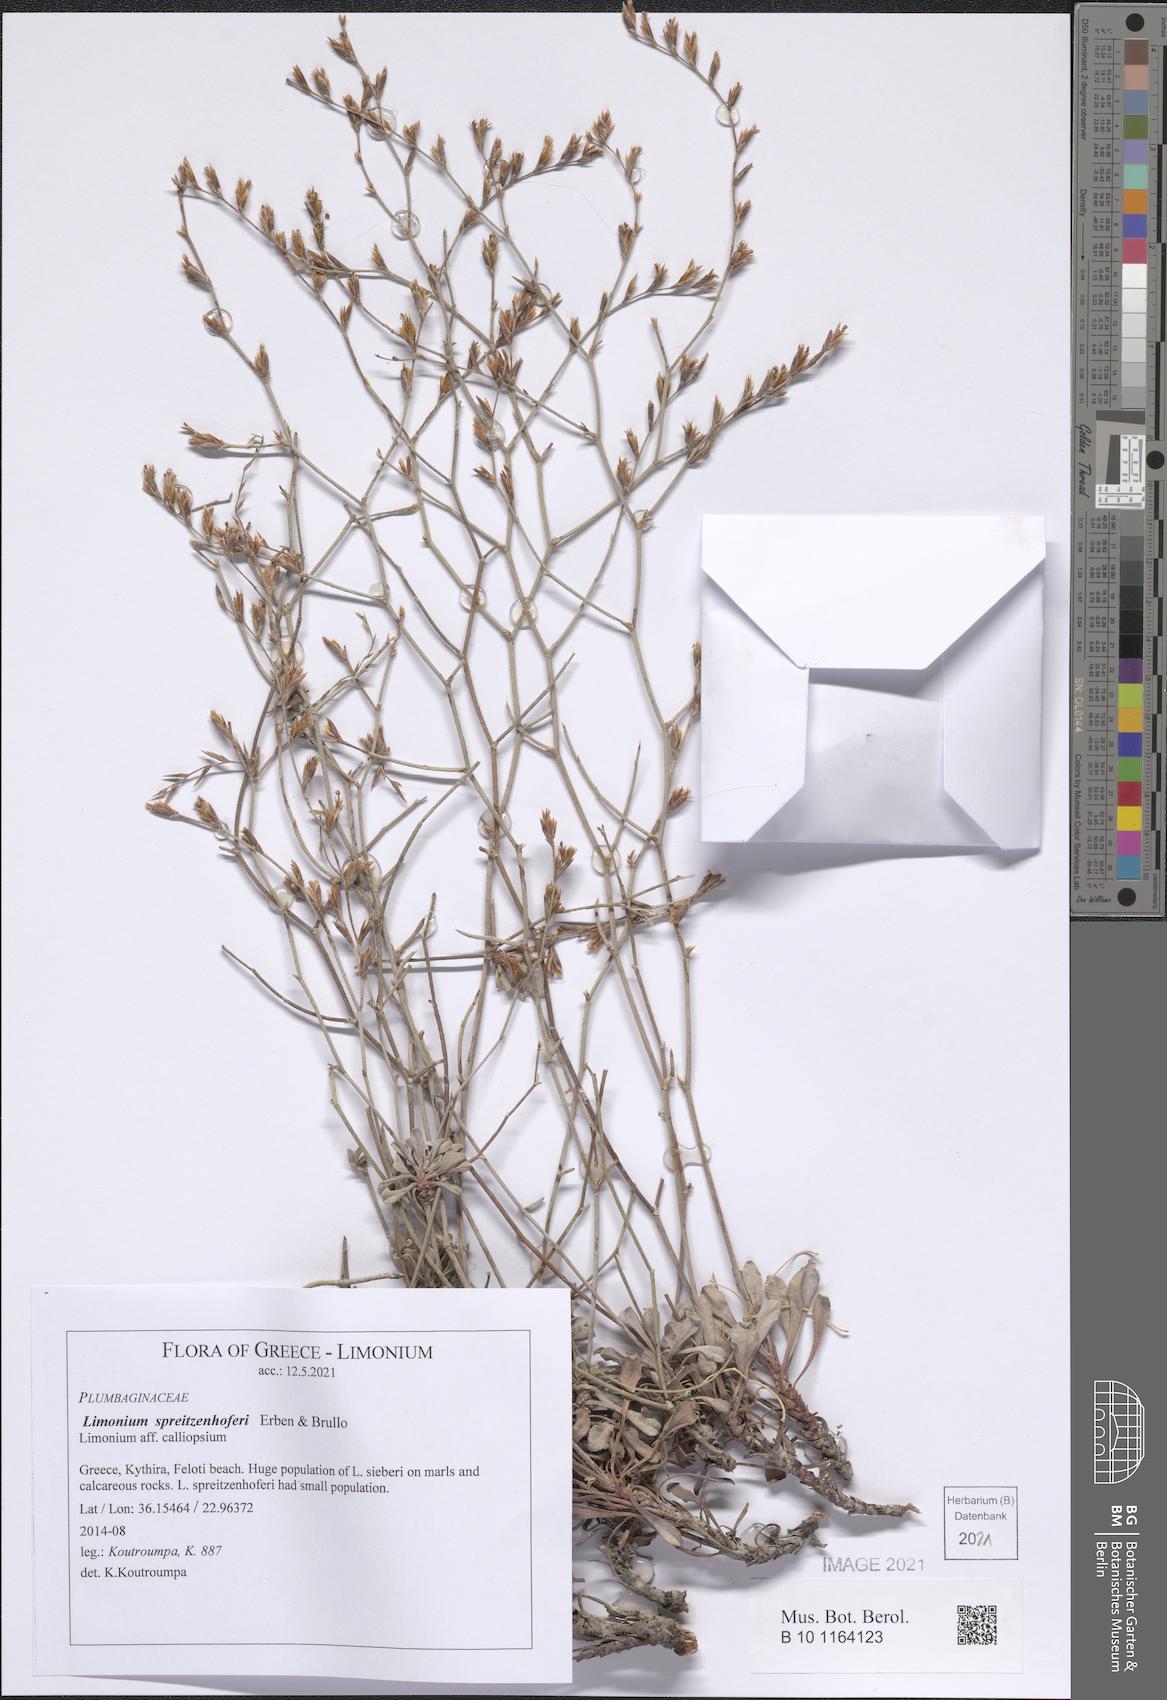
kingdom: Plantae
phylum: Tracheophyta
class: Magnoliopsida
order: Caryophyllales
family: Plumbaginaceae
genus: Limonium
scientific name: Limonium spreitzenhoferi
